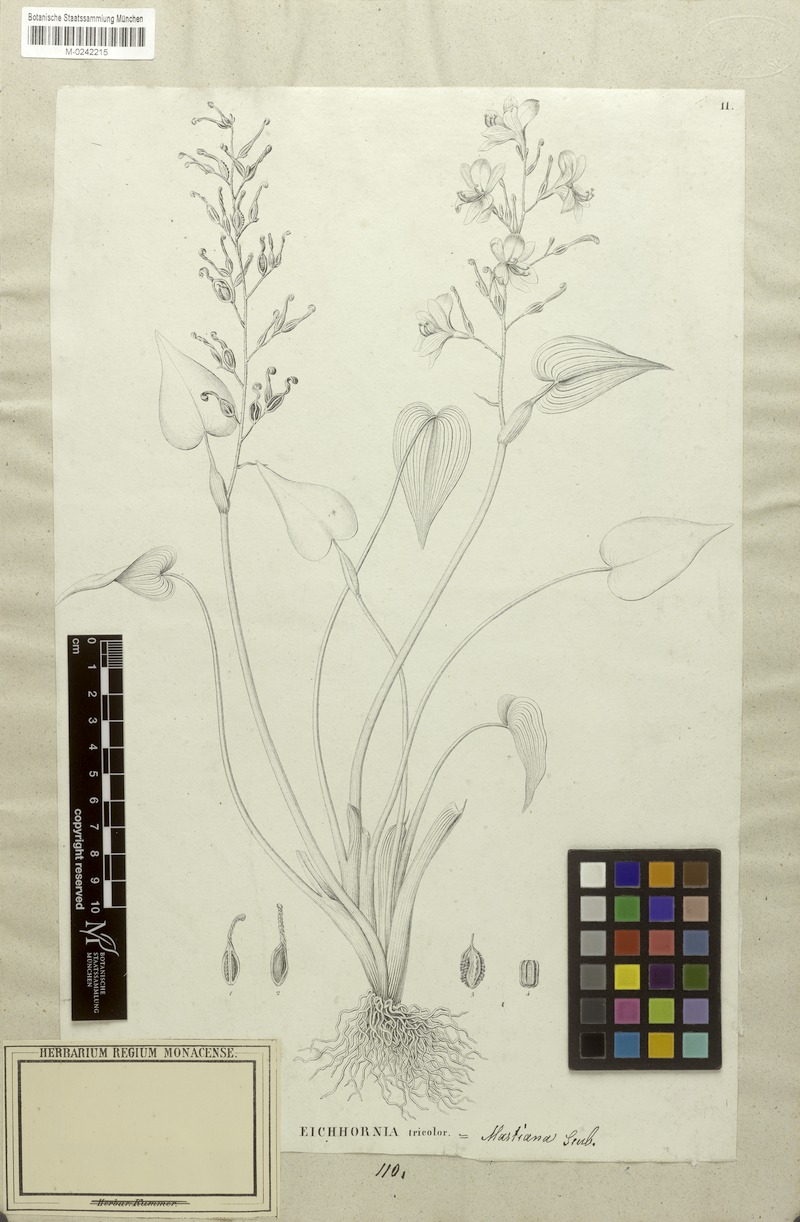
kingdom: Plantae
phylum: Tracheophyta
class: Liliopsida
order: Commelinales
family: Pontederiaceae
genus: Pontederia
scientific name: Pontederia paniculata
